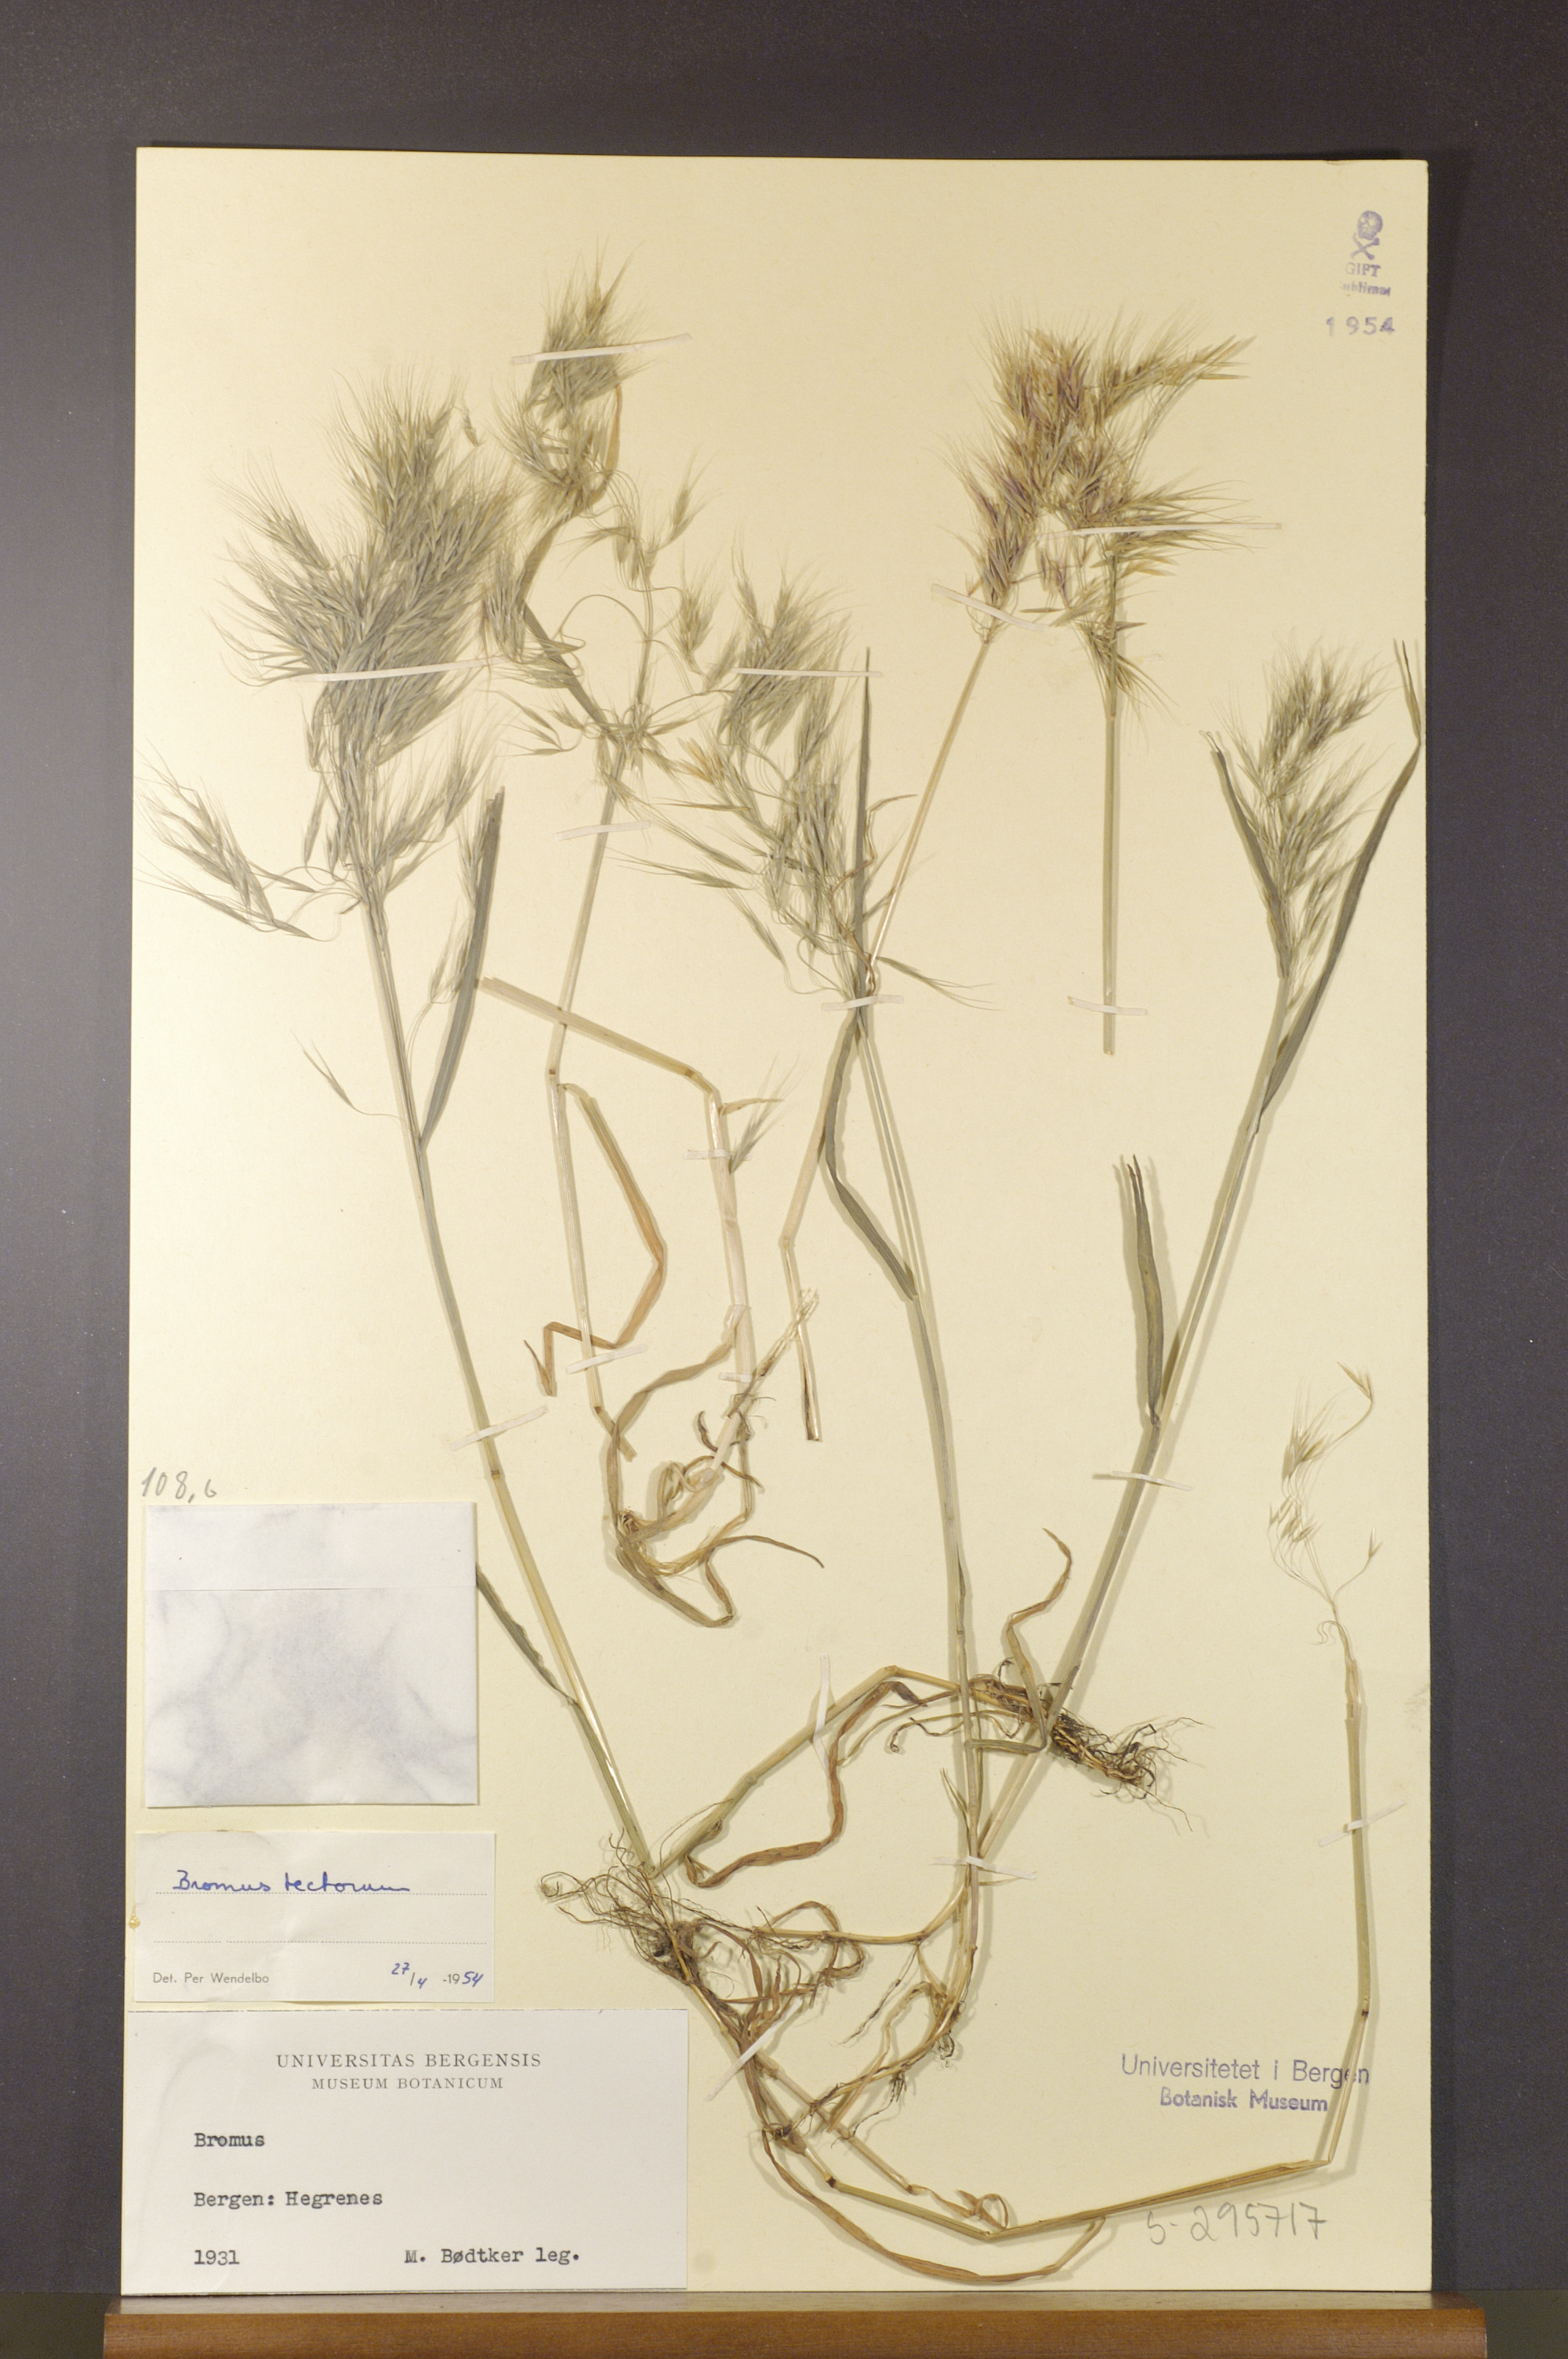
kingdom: Plantae
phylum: Tracheophyta
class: Liliopsida
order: Poales
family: Poaceae
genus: Bromus
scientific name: Bromus tectorum
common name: Cheatgrass
